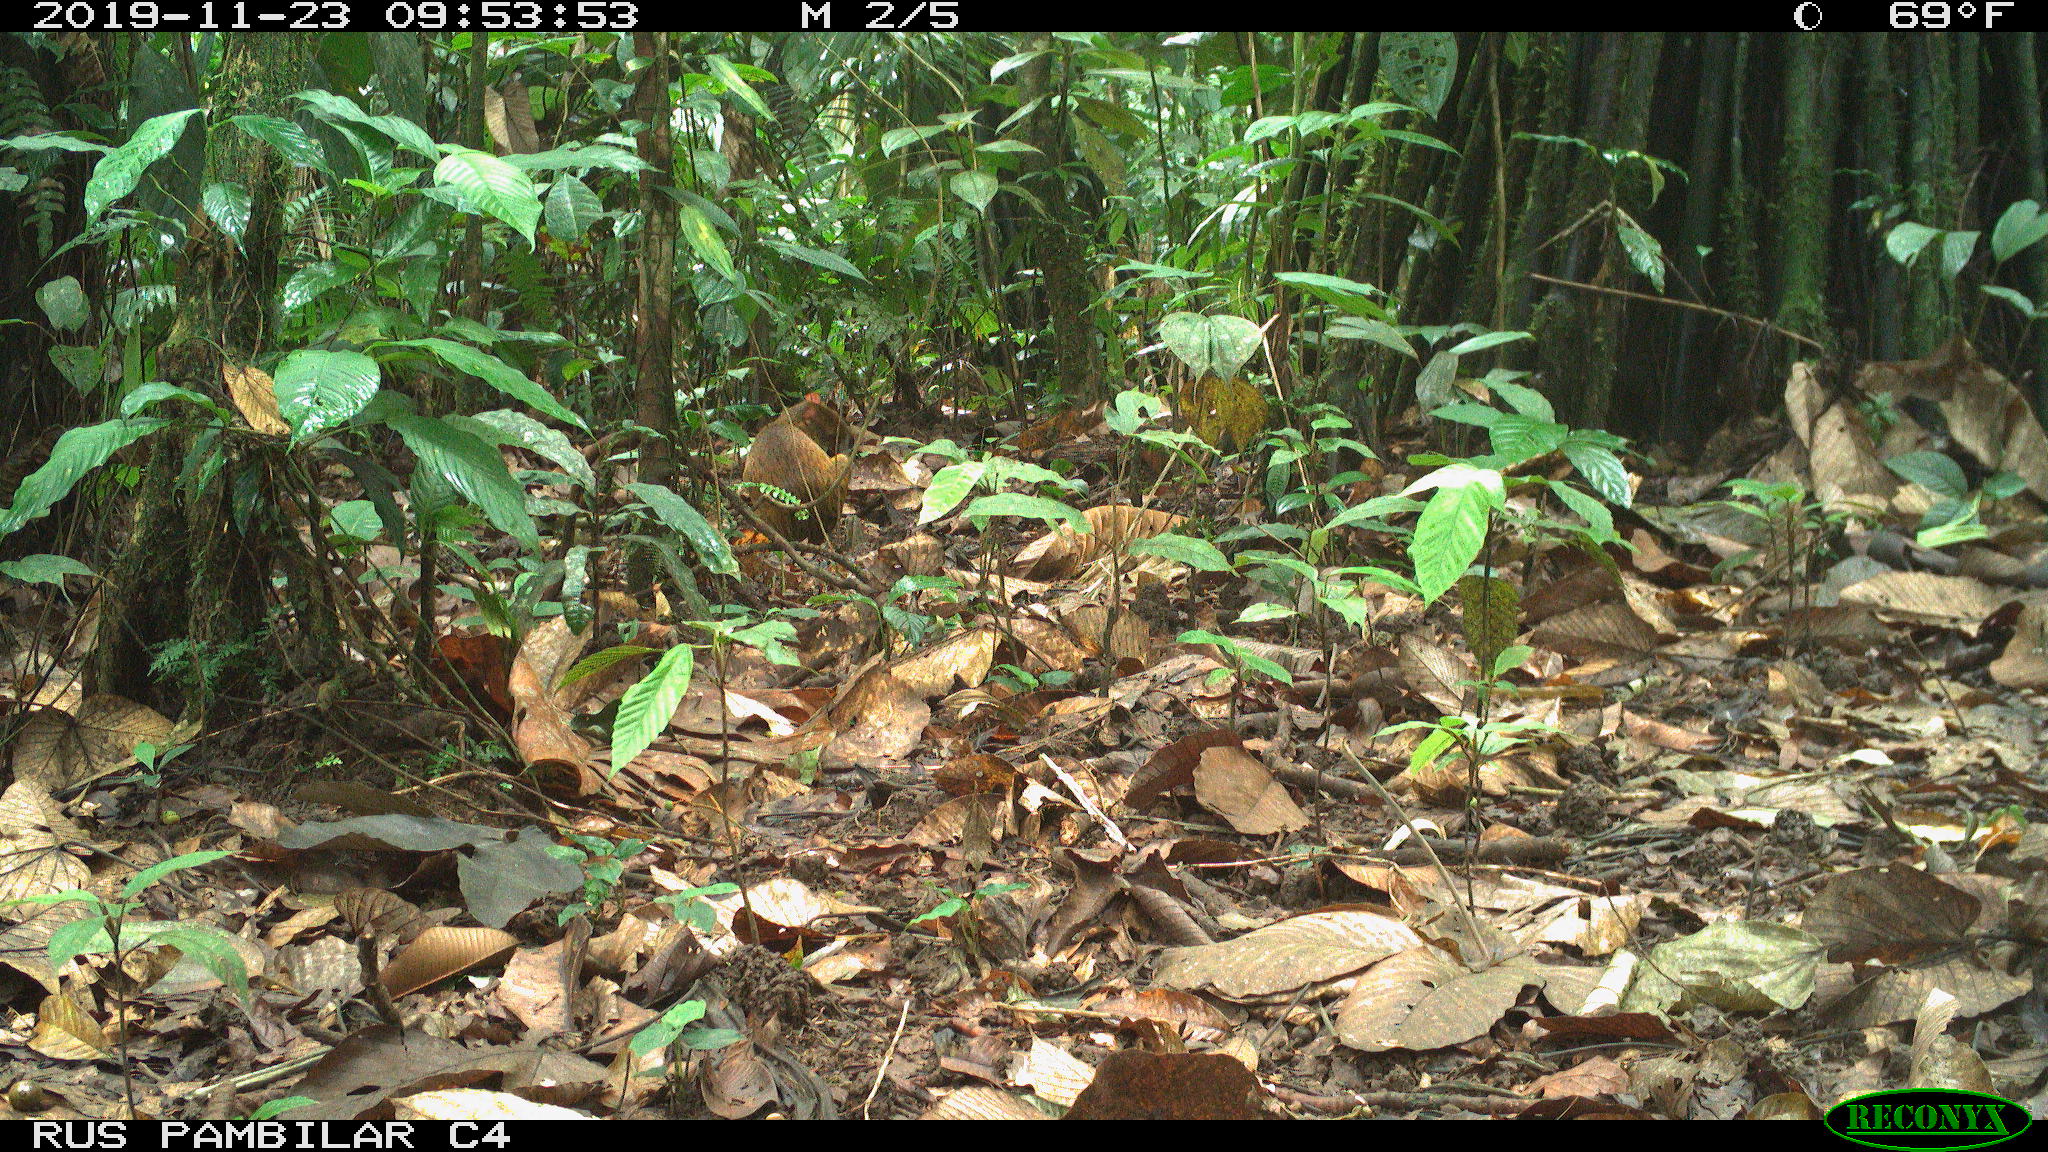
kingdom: Animalia
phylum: Chordata
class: Mammalia
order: Rodentia
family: Dasyproctidae
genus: Dasyprocta
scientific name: Dasyprocta punctata
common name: Central american agouti
